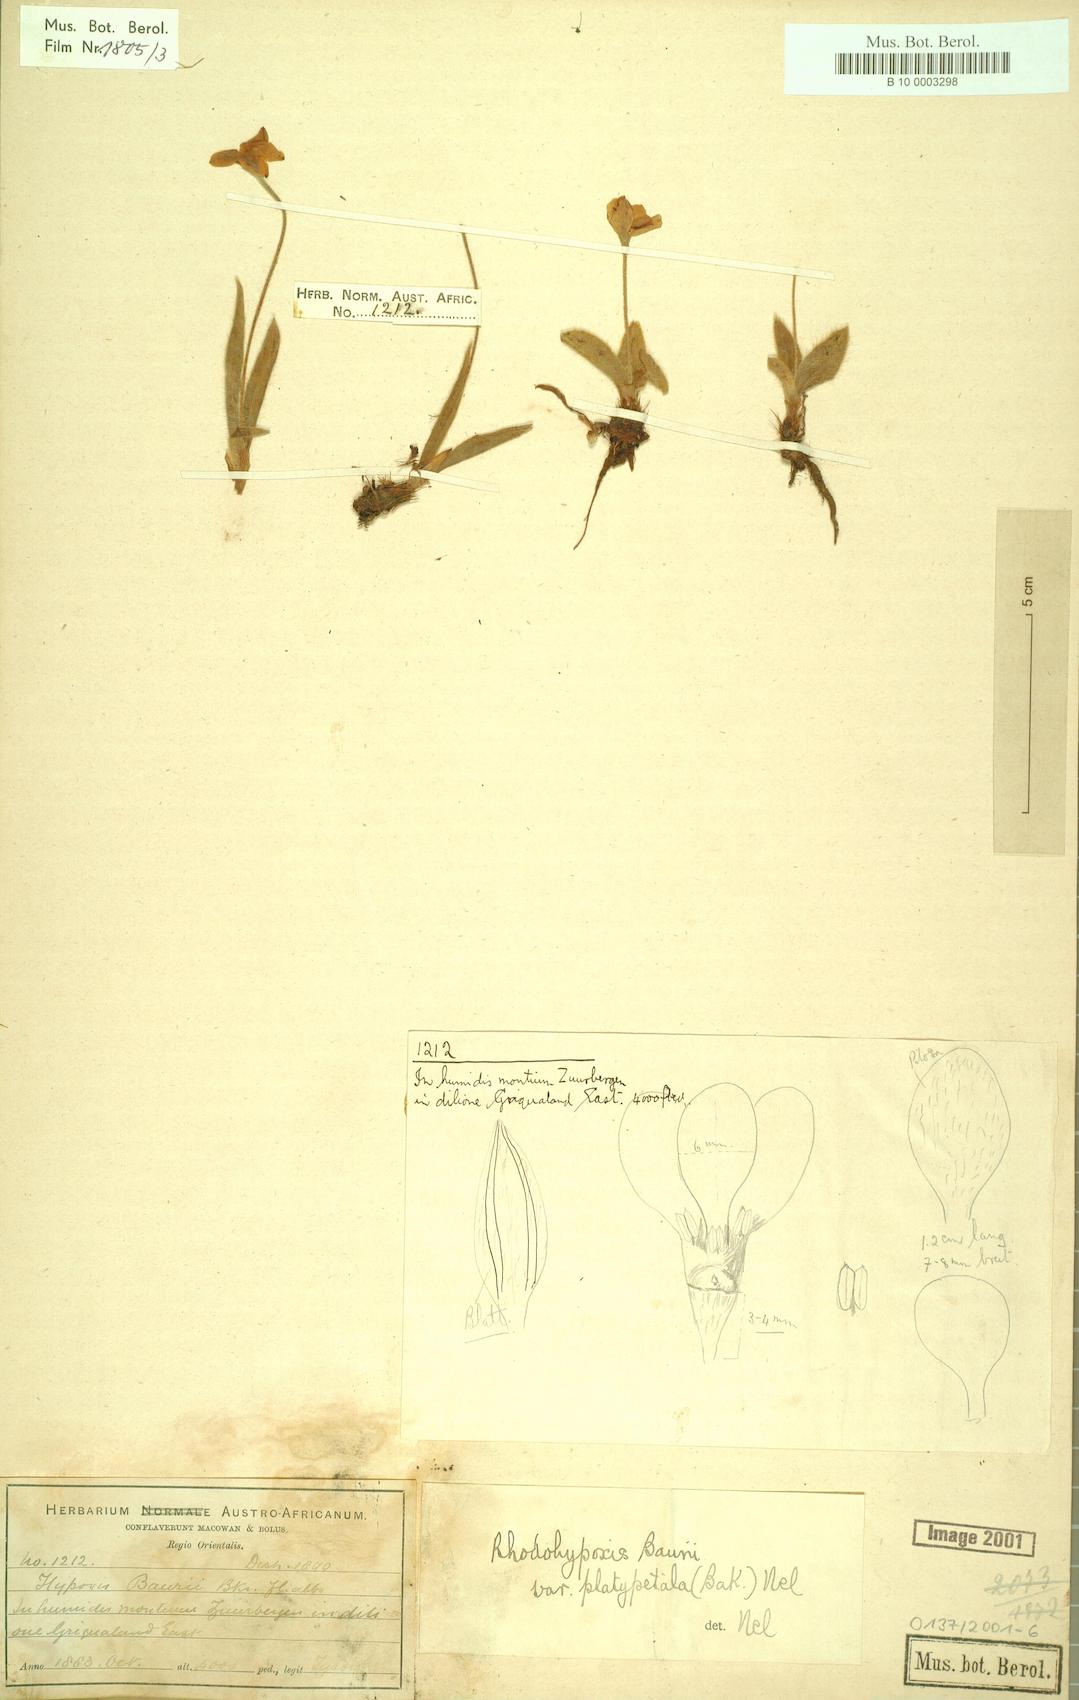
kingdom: Plantae
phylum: Tracheophyta
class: Liliopsida
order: Asparagales
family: Hypoxidaceae
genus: Hypoxis
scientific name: Hypoxis baurii
